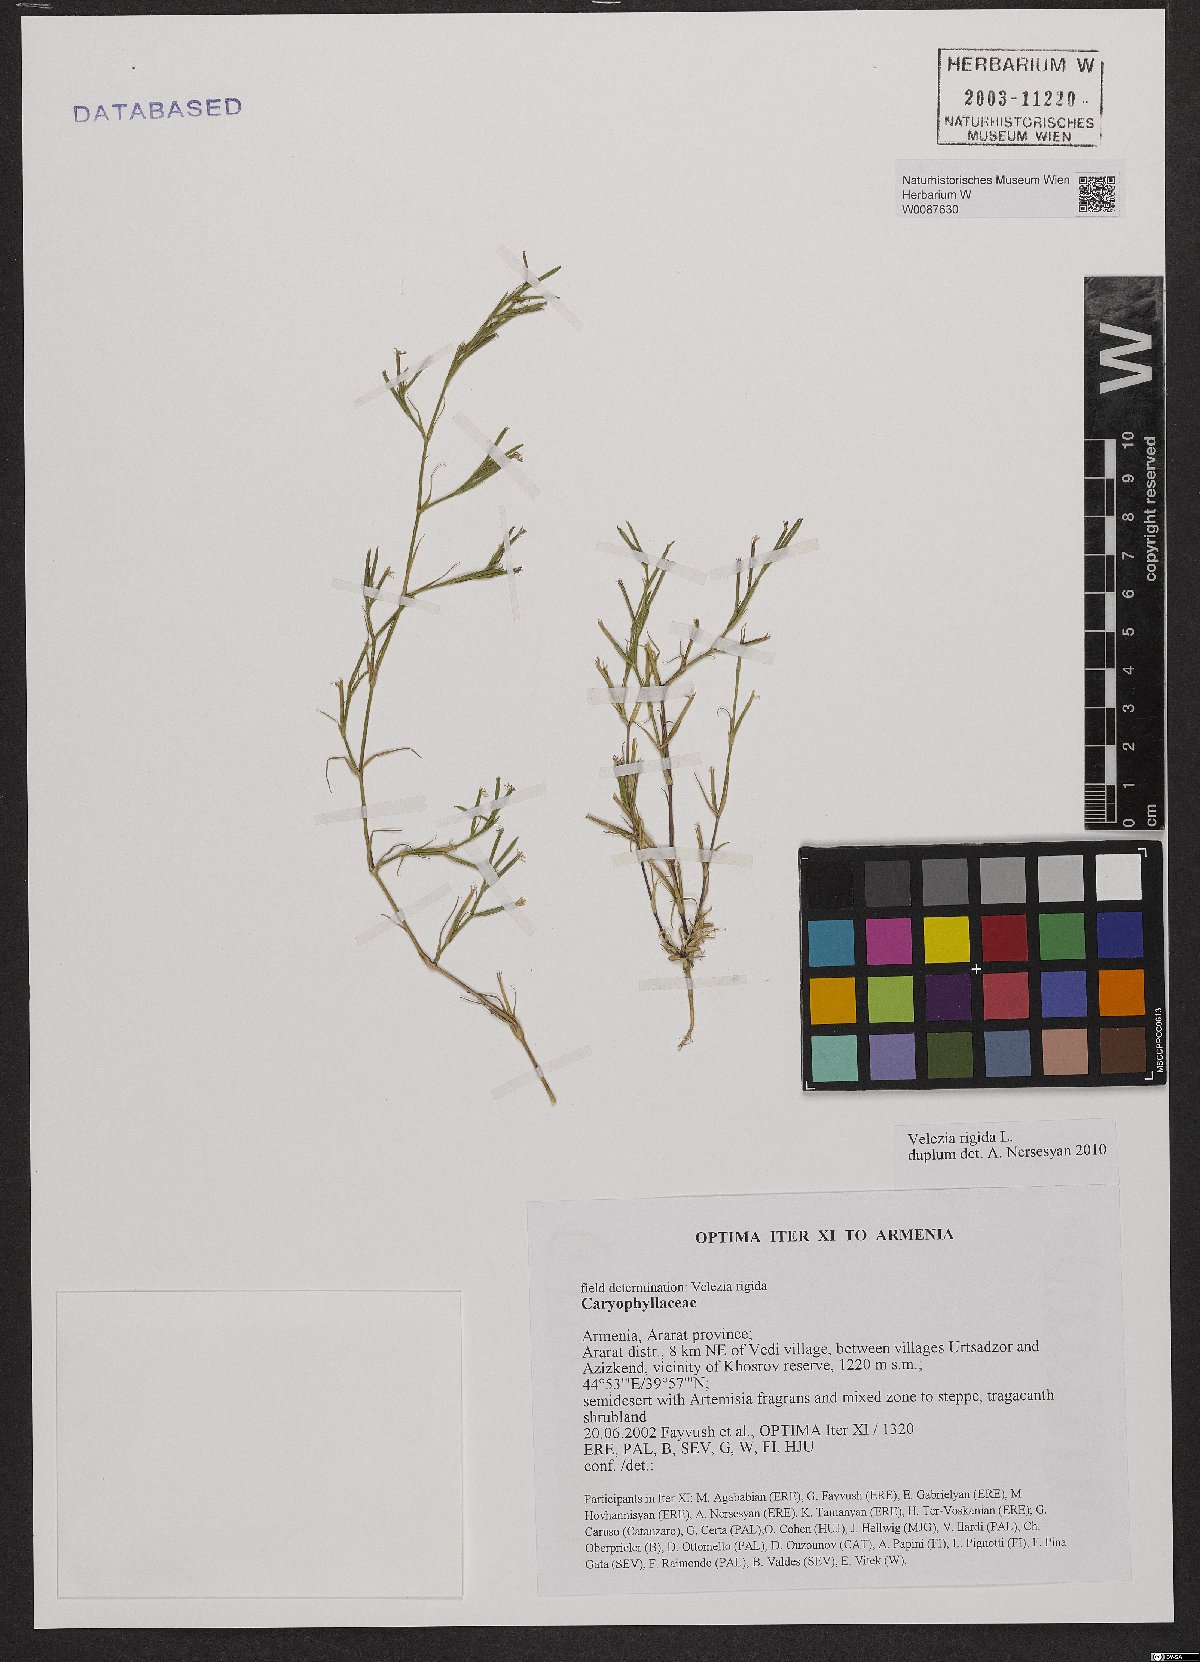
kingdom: Plantae
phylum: Tracheophyta
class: Magnoliopsida
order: Caryophyllales
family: Caryophyllaceae
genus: Dianthus
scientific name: Dianthus nudiflorus
